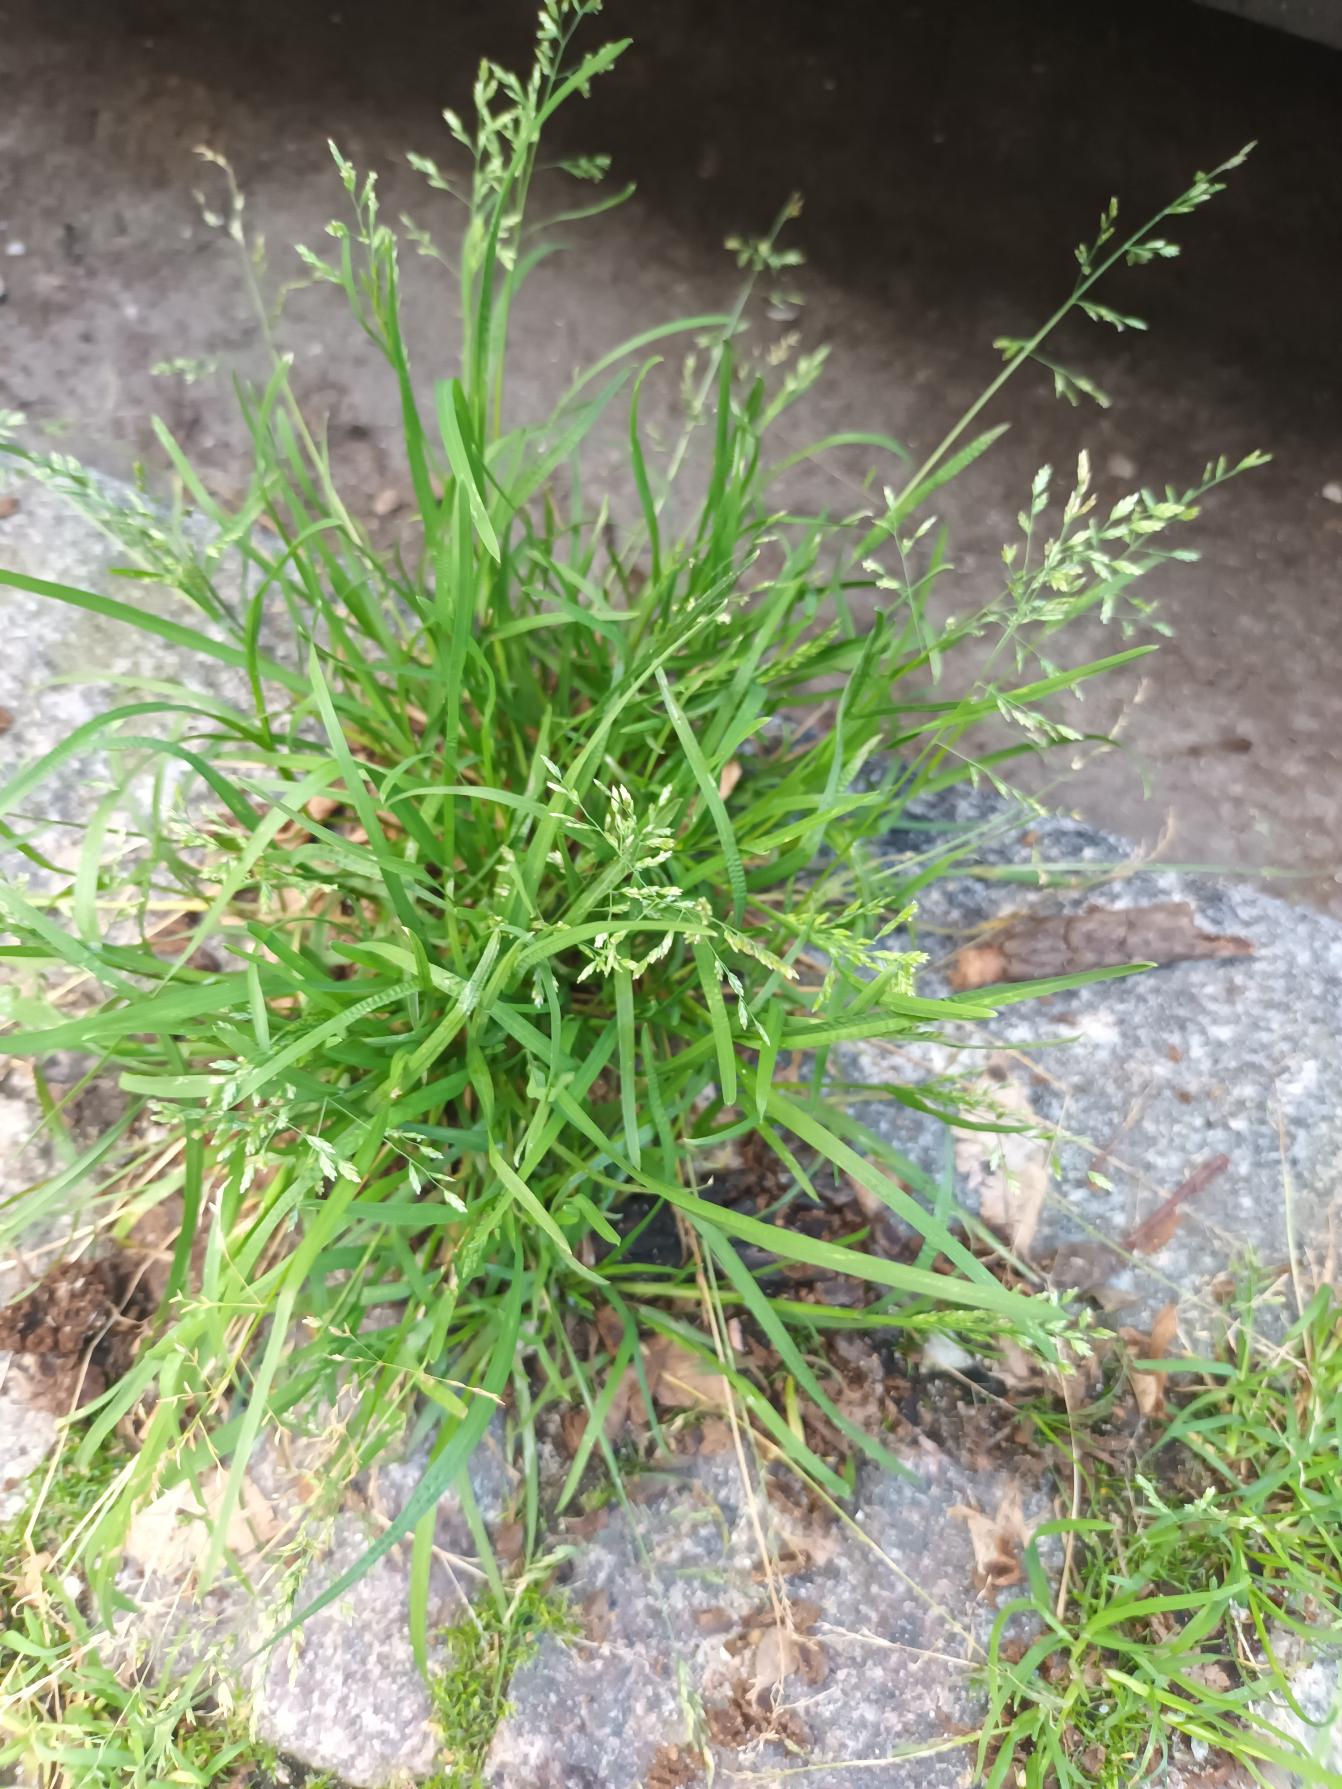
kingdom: Plantae
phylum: Tracheophyta
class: Liliopsida
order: Poales
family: Poaceae
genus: Poa
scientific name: Poa annua
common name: Enårig rapgræs
